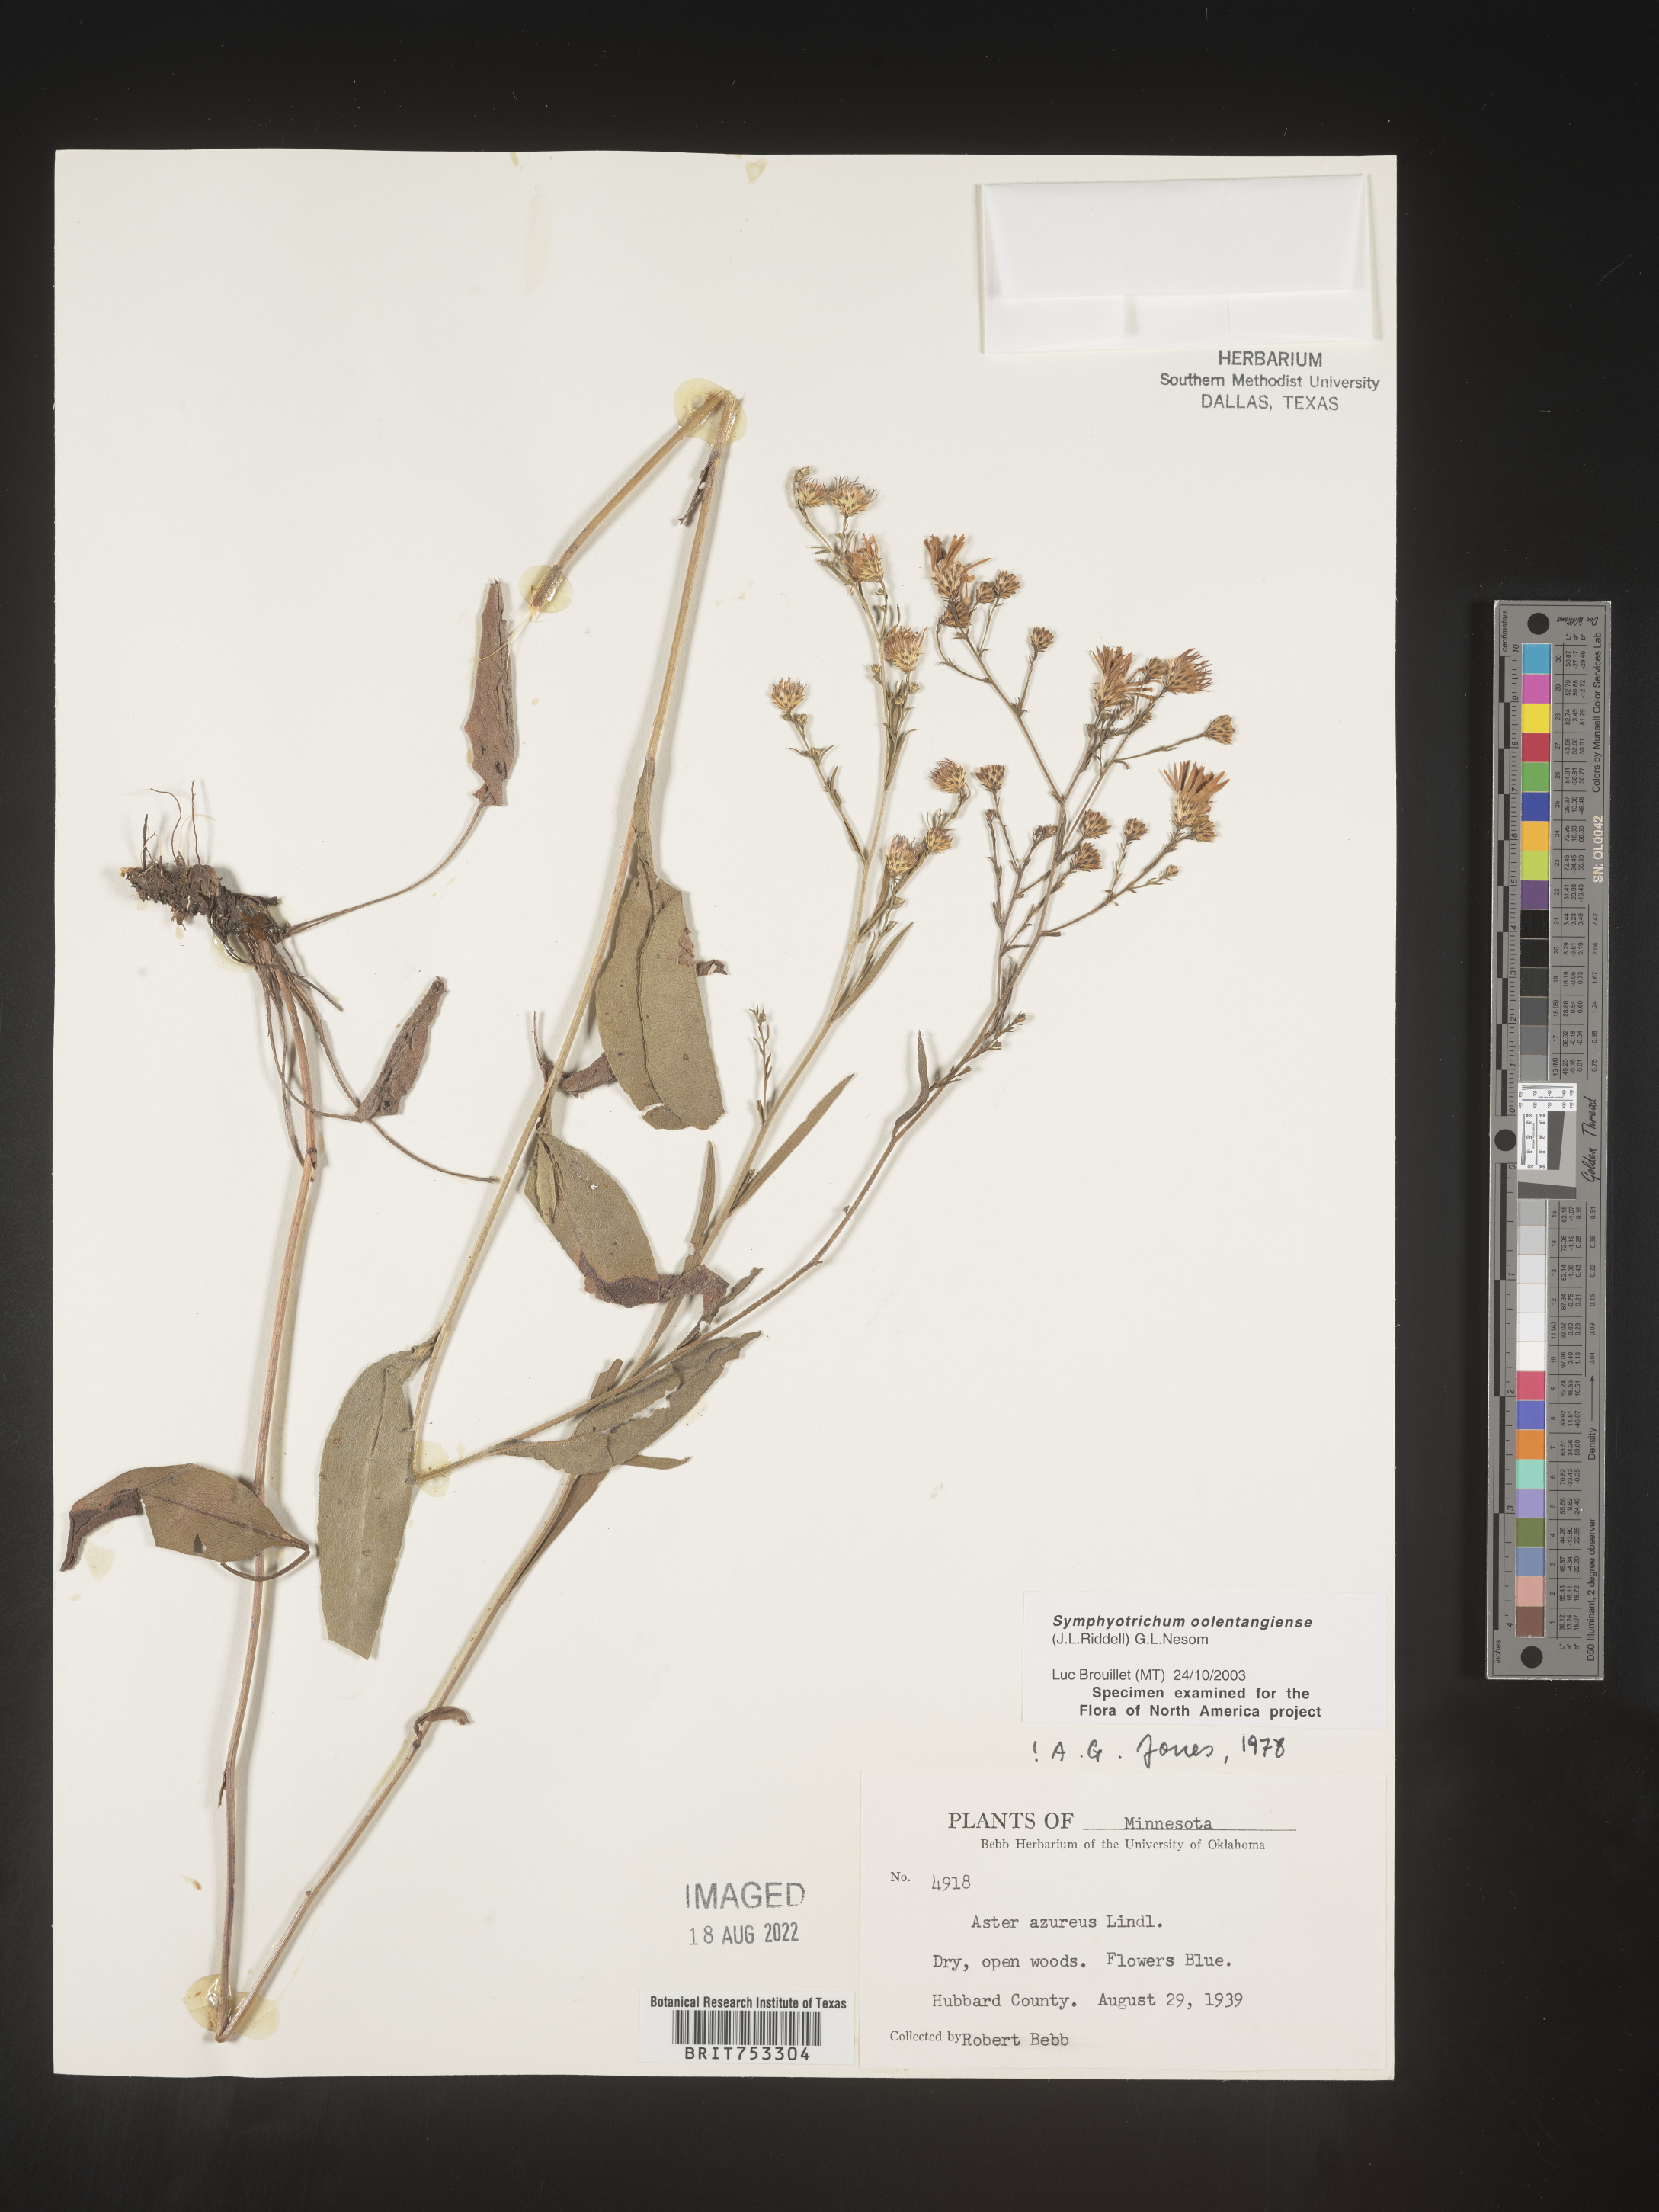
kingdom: Plantae
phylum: Tracheophyta
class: Magnoliopsida
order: Asterales
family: Asteraceae
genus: Symphyotrichum
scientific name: Symphyotrichum oolentangiense
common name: Azure aster
